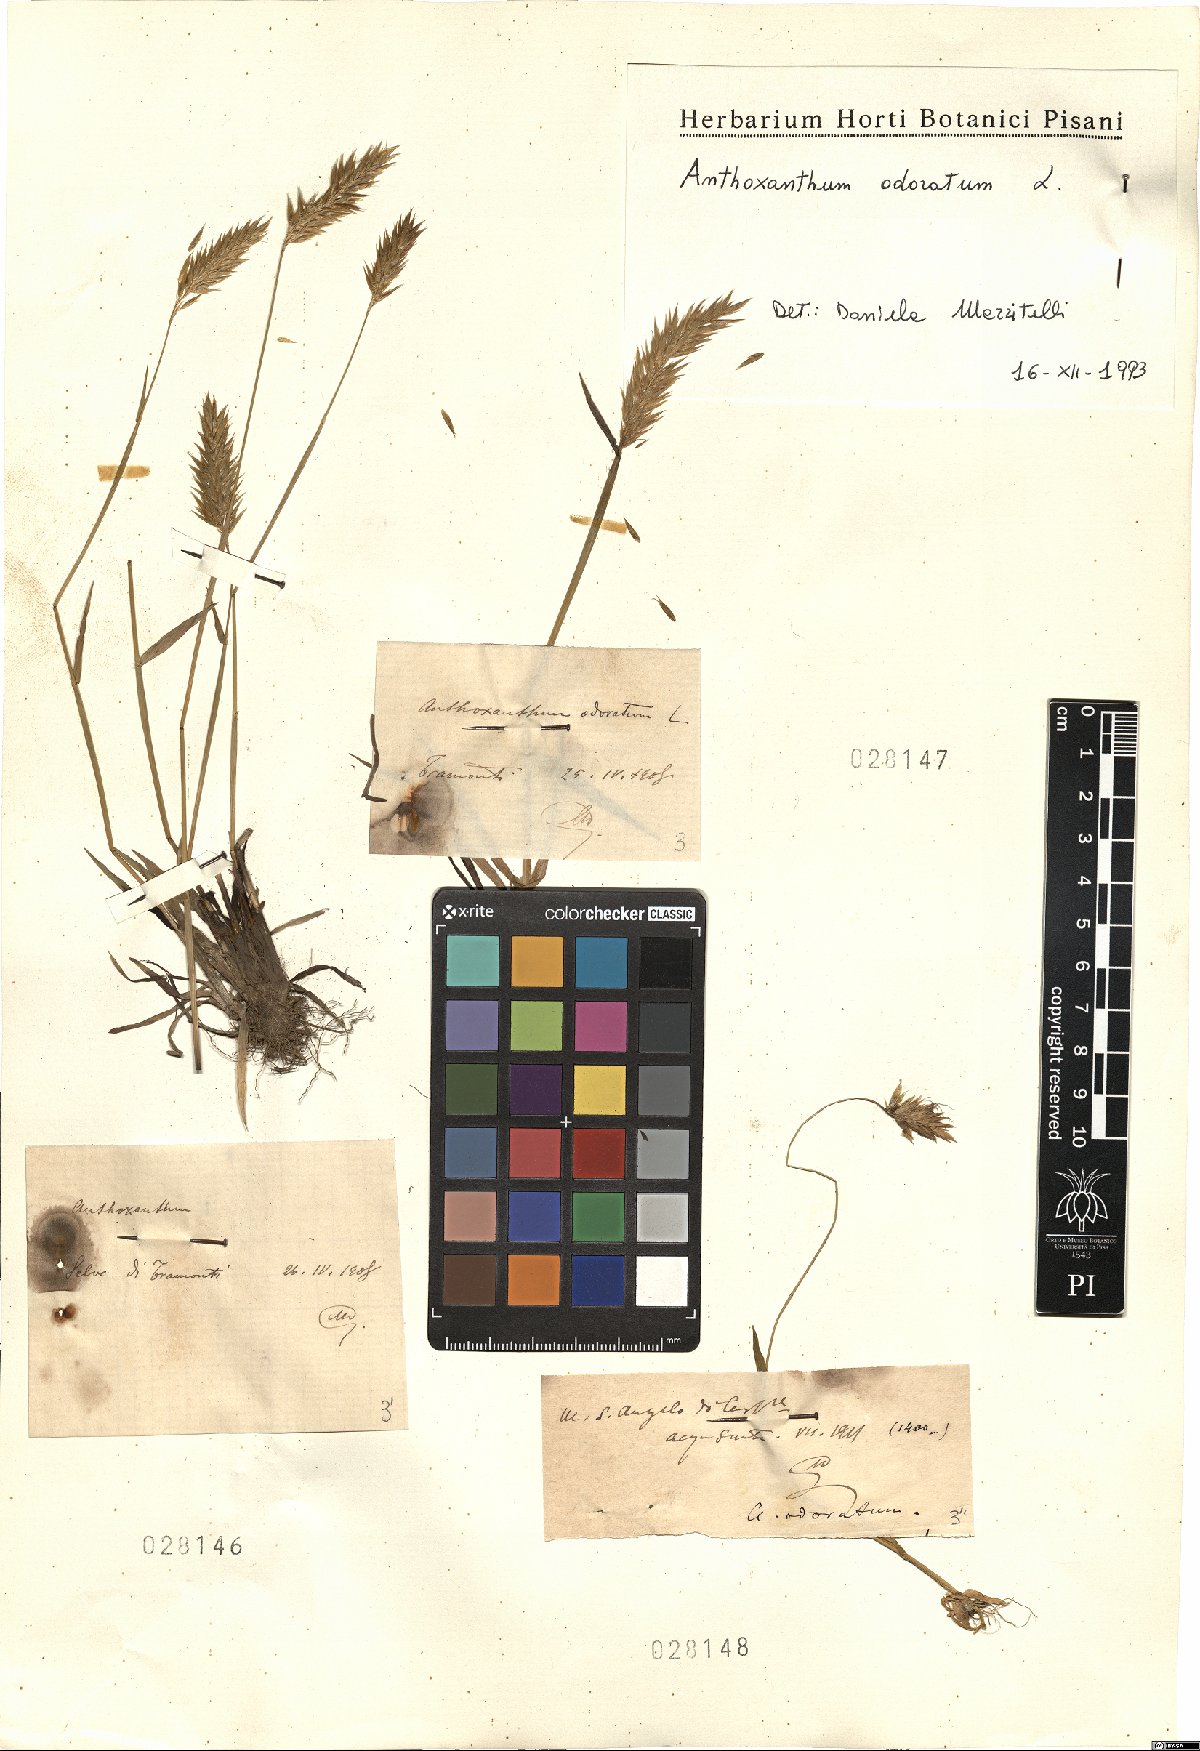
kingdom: Plantae
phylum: Tracheophyta
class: Liliopsida
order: Poales
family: Poaceae
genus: Anthoxanthum
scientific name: Anthoxanthum odoratum
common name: Sweet vernalgrass
